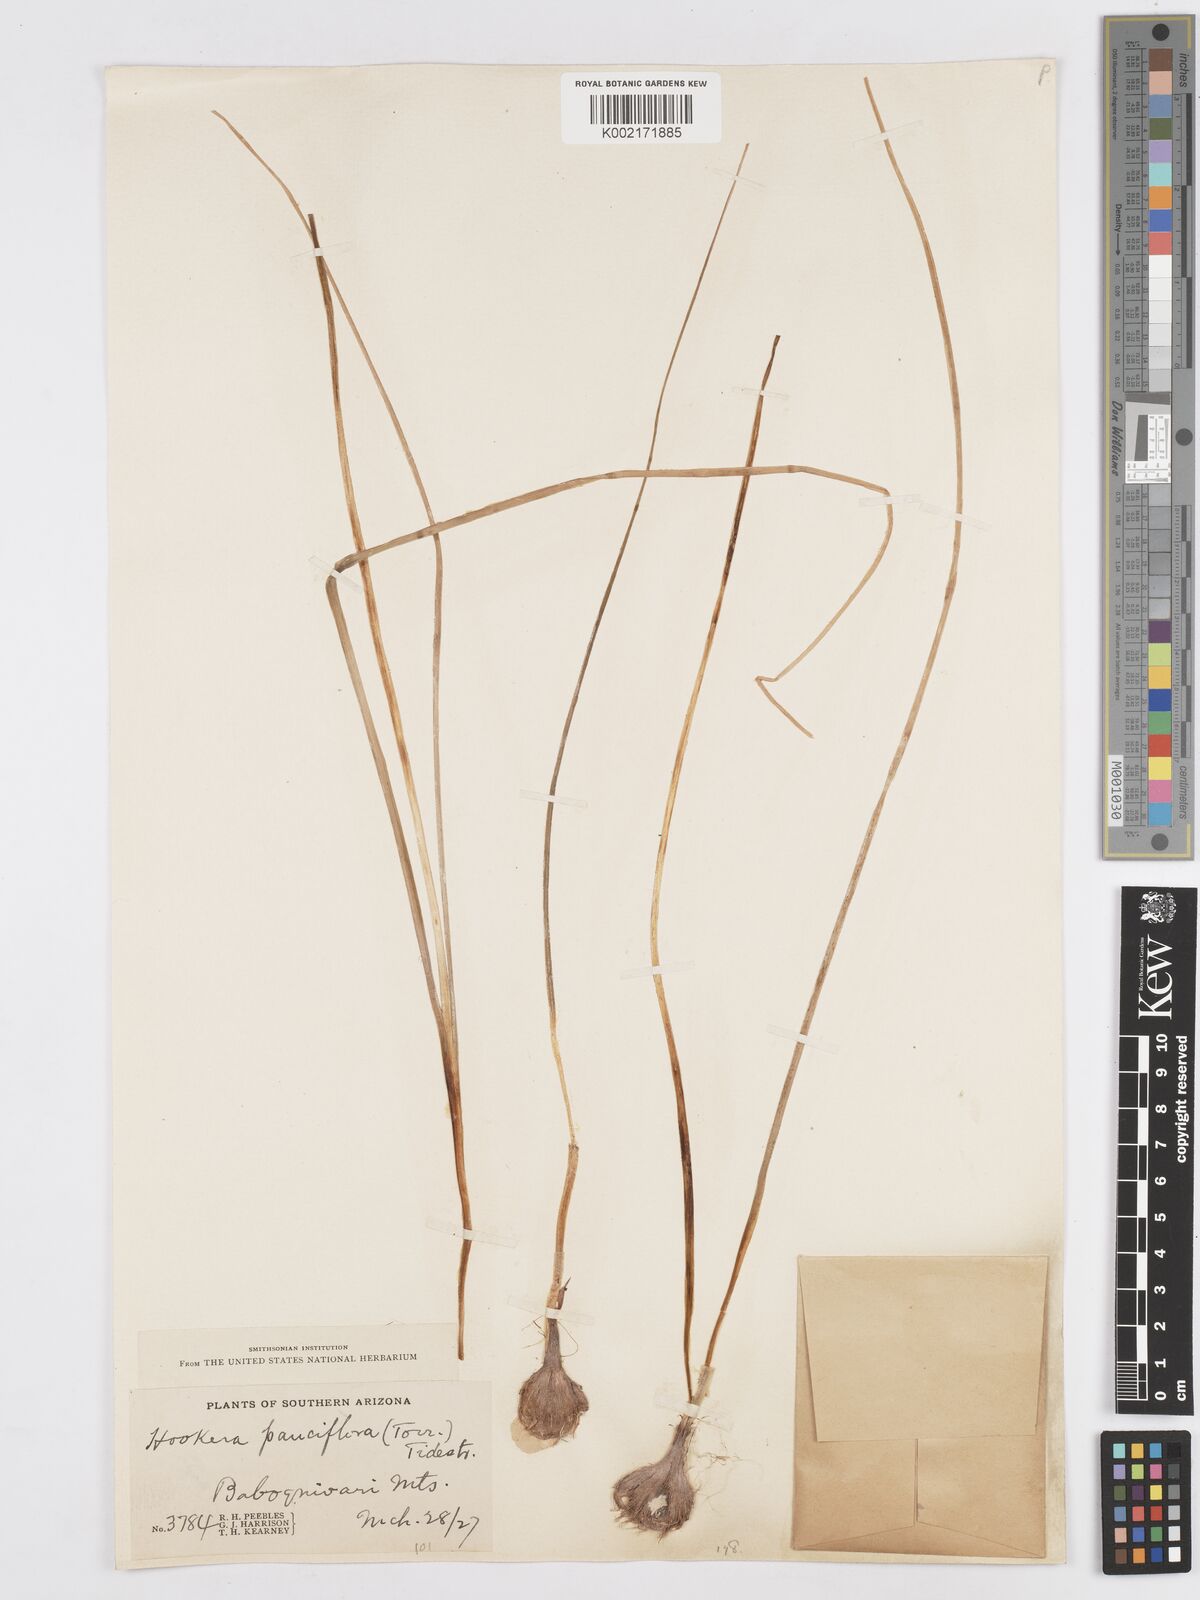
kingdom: Plantae
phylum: Tracheophyta
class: Liliopsida
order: Asparagales
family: Asparagaceae
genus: Dipterostemon
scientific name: Dipterostemon capitatus
